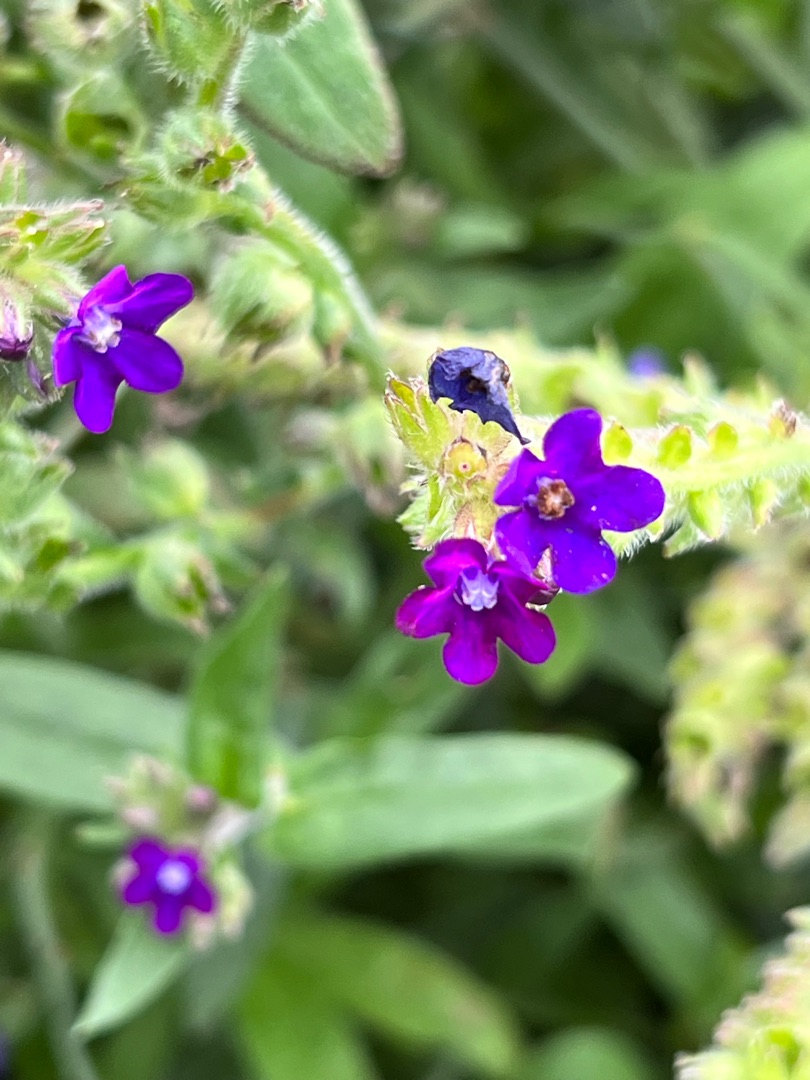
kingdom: Plantae
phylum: Tracheophyta
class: Magnoliopsida
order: Boraginales
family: Boraginaceae
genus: Anchusa
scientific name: Anchusa officinalis
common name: Læge-oksetunge
